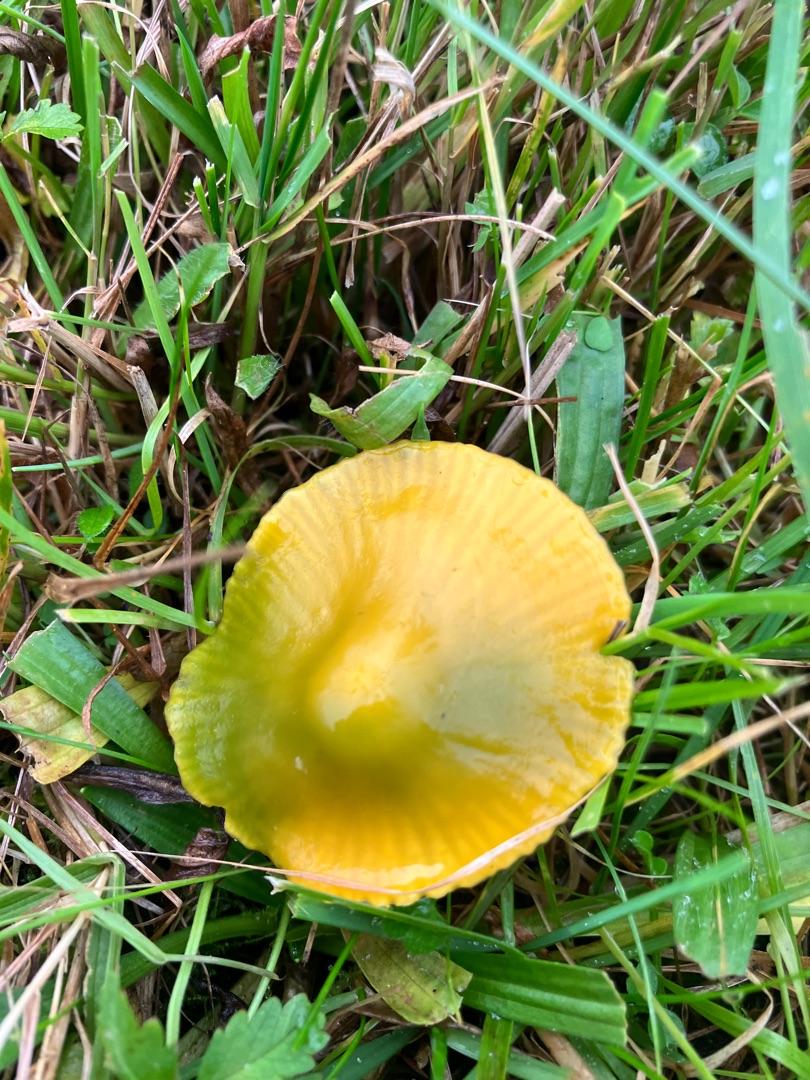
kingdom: Fungi
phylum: Basidiomycota
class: Agaricomycetes
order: Agaricales
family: Hygrophoraceae
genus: Gliophorus
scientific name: Gliophorus psittacinus
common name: Papegøje-vokshat
